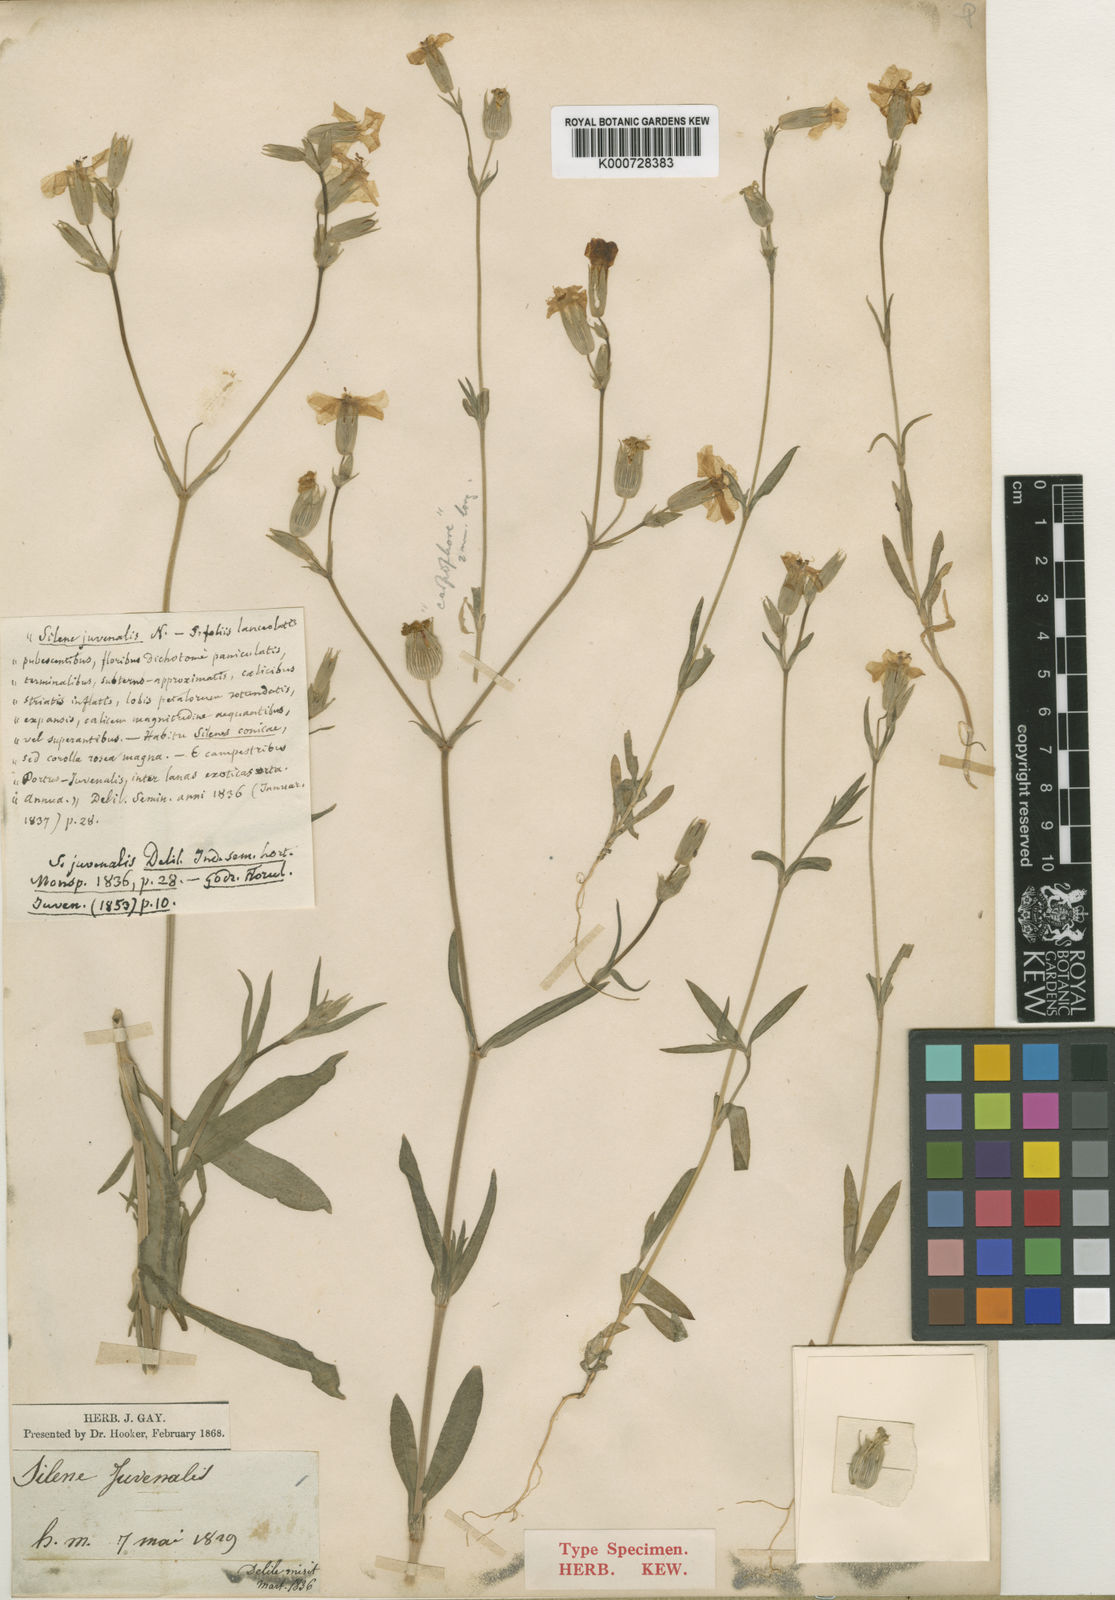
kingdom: Plantae
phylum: Tracheophyta
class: Magnoliopsida
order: Caryophyllales
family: Caryophyllaceae
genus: Silene
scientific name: Silene conica
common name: Sand catchfly
